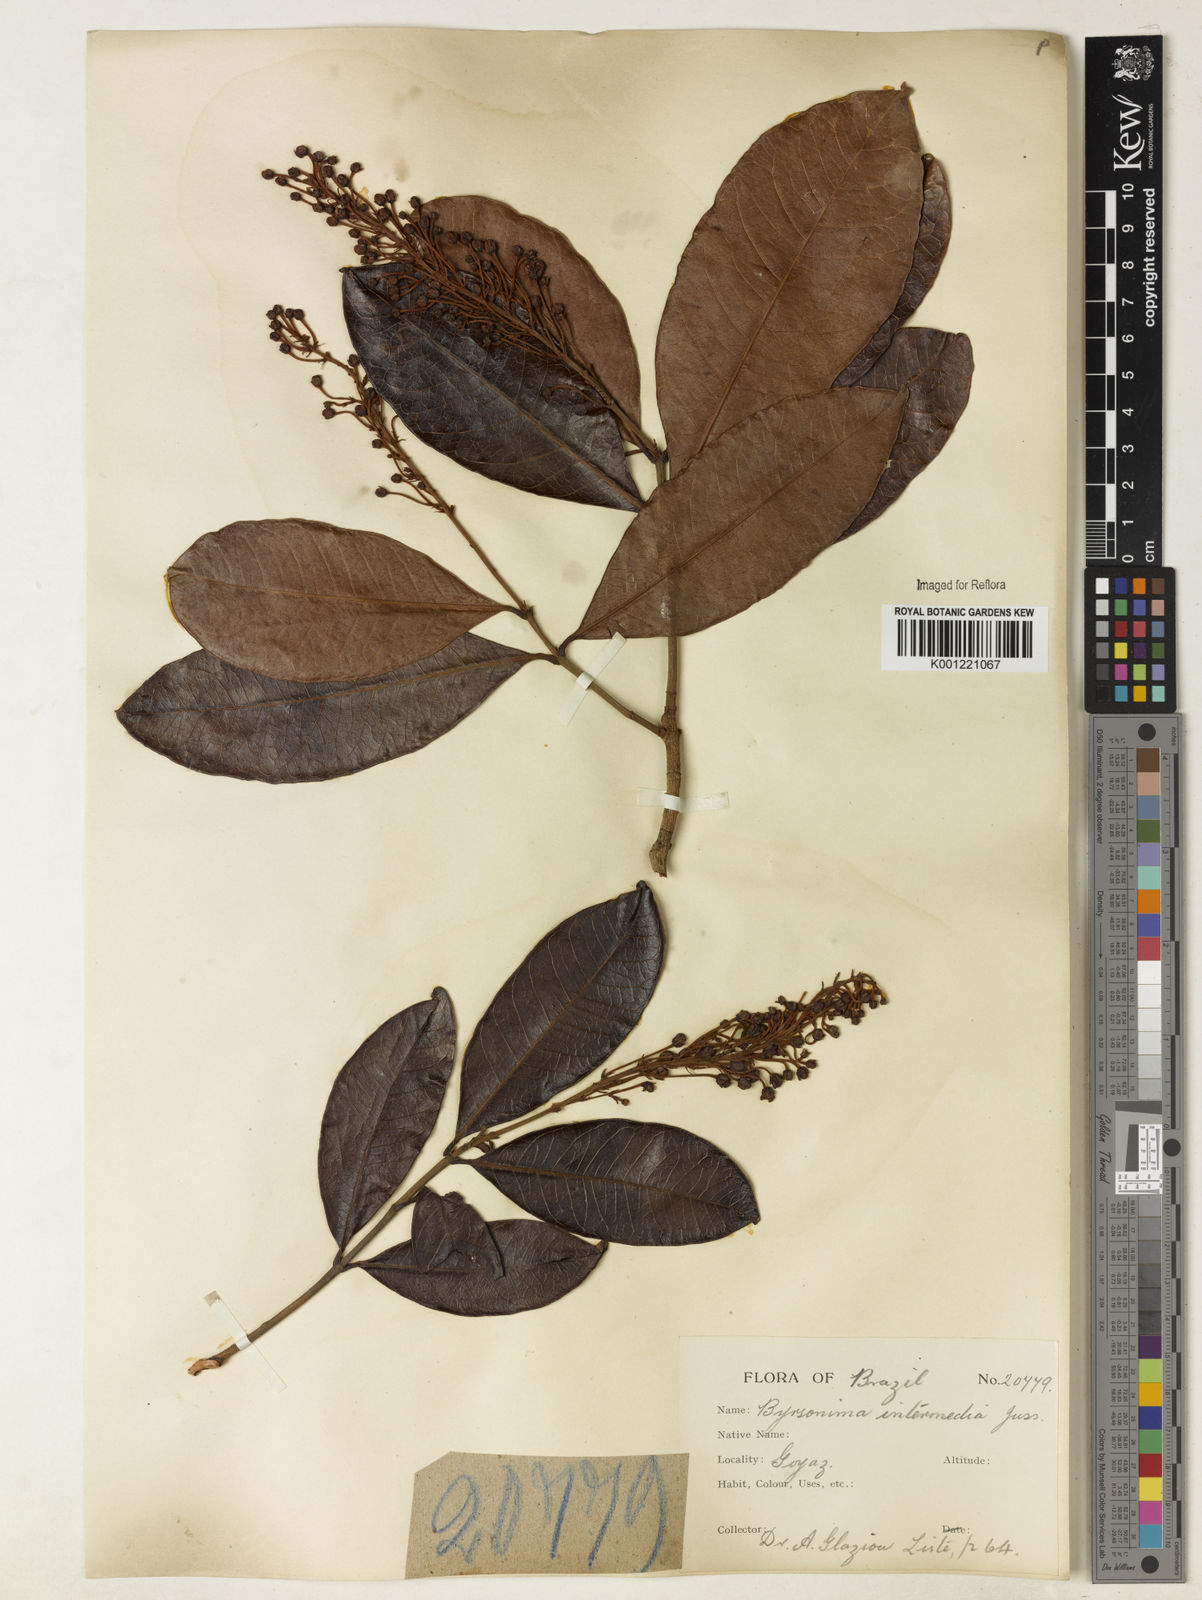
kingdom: Plantae
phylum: Tracheophyta
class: Magnoliopsida
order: Malpighiales
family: Malpighiaceae
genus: Byrsonima
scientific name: Byrsonima intermedia
